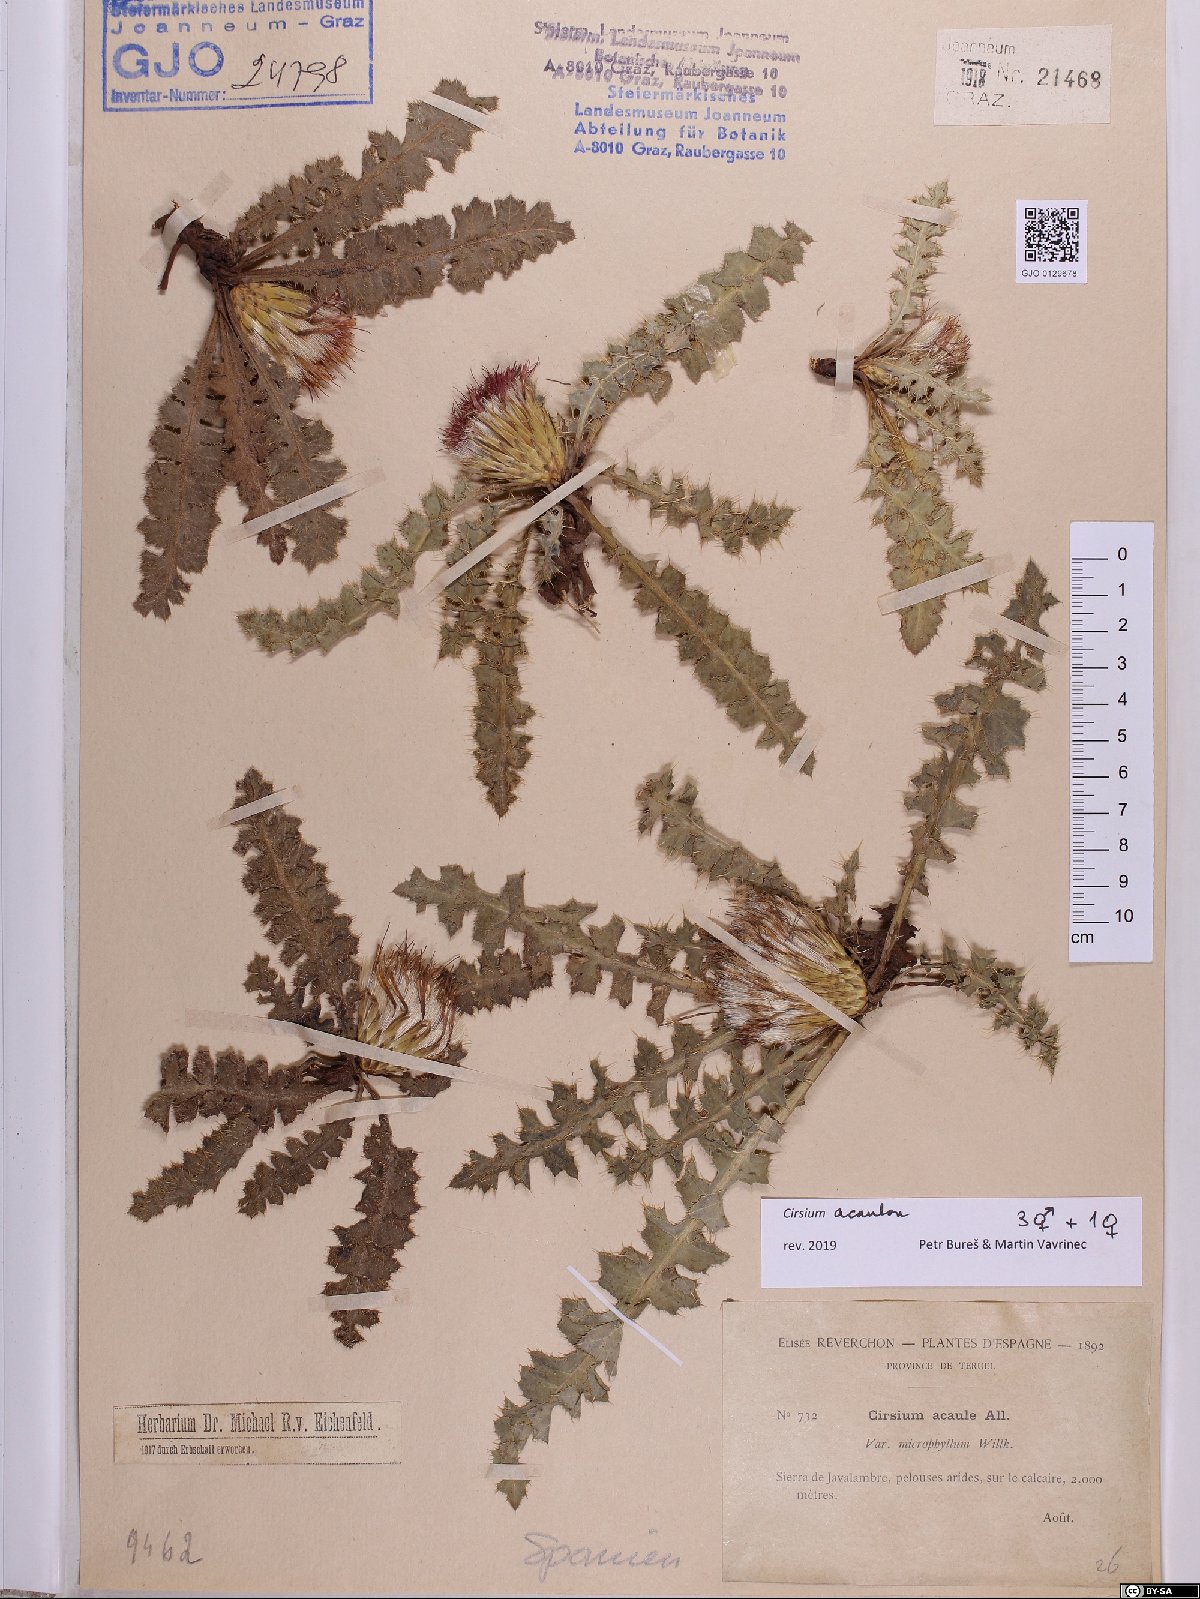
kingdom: Plantae
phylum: Tracheophyta
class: Magnoliopsida
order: Asterales
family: Asteraceae
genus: Cirsium
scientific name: Cirsium acaulon
